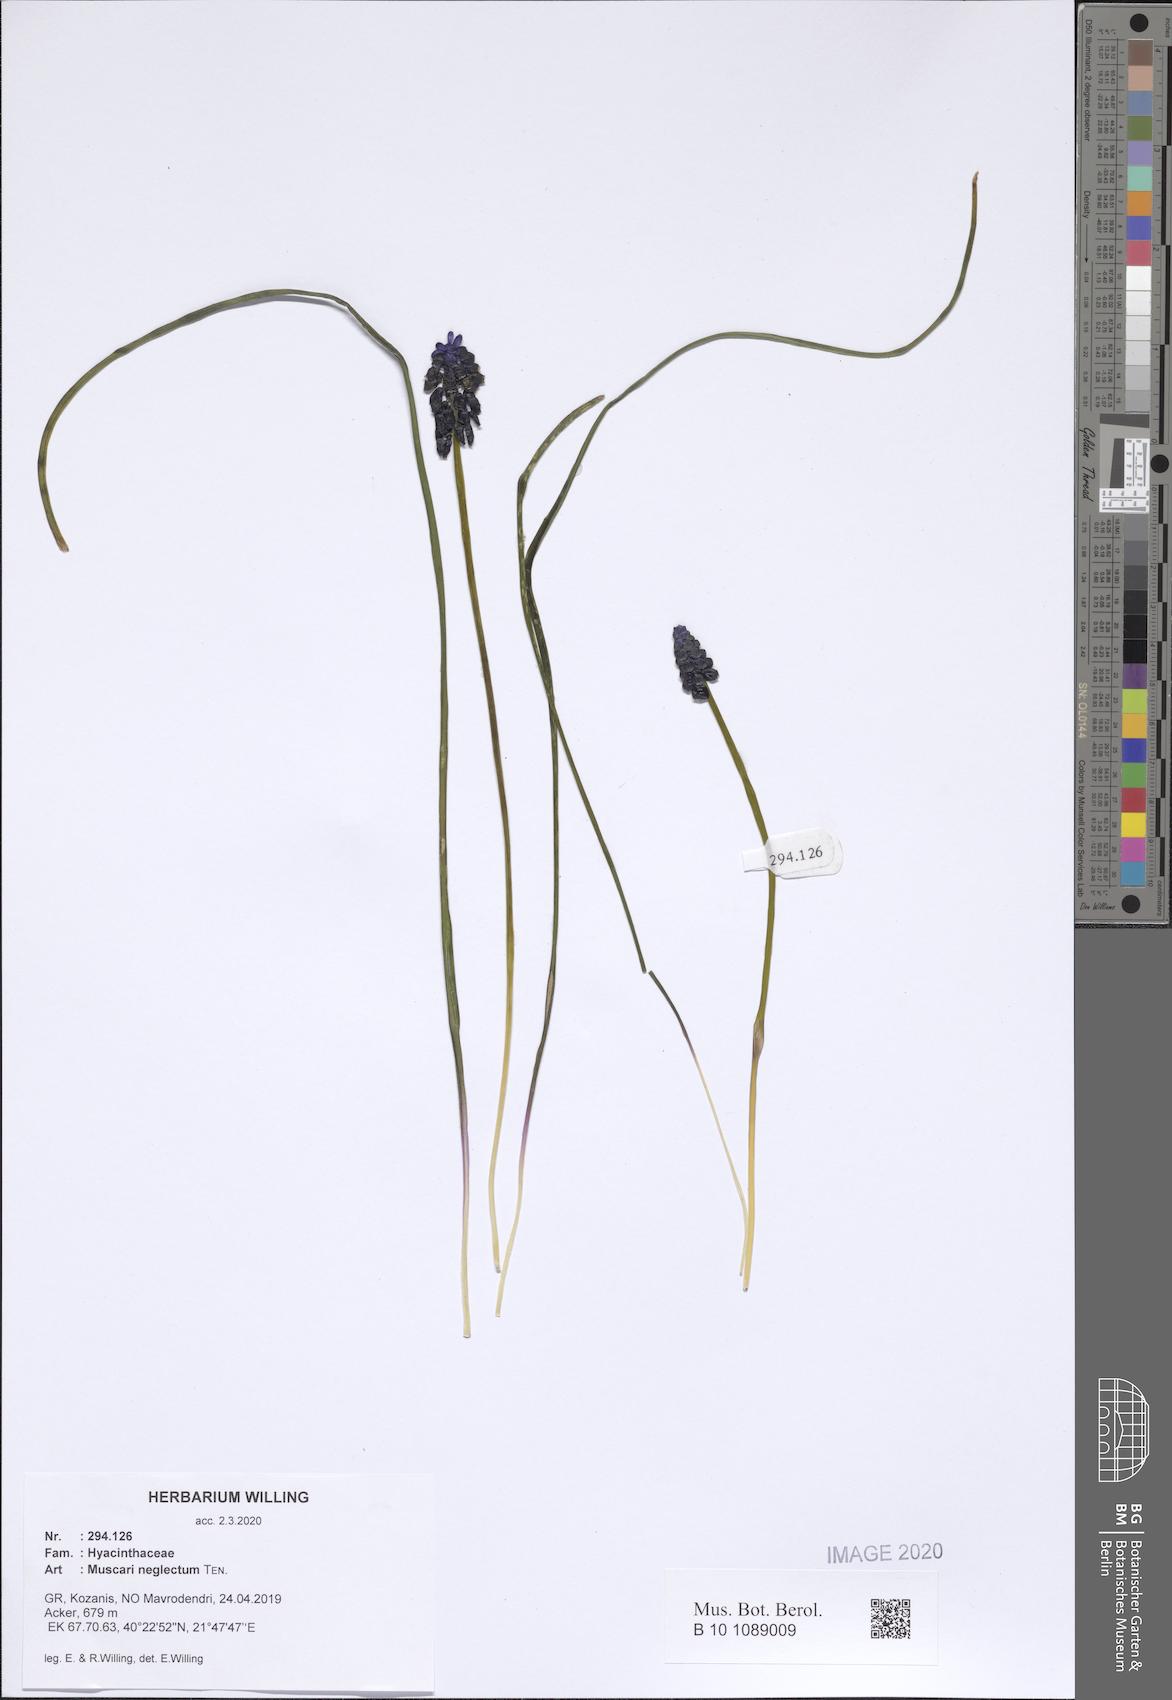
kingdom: Plantae
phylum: Tracheophyta
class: Liliopsida
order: Asparagales
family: Asparagaceae
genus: Muscari
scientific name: Muscari neglectum
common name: Grape-hyacinth
